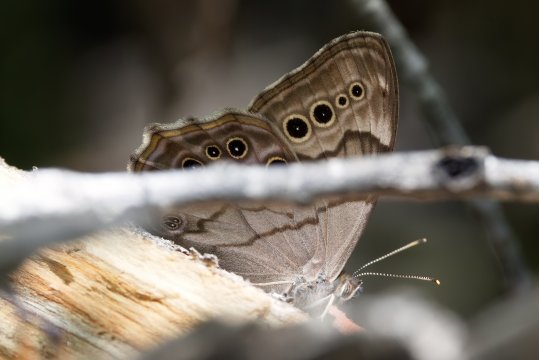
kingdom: Animalia
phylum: Arthropoda
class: Insecta
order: Lepidoptera
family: Nymphalidae
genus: Lethe
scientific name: Lethe anthedon
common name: Northern Pearly-Eye
